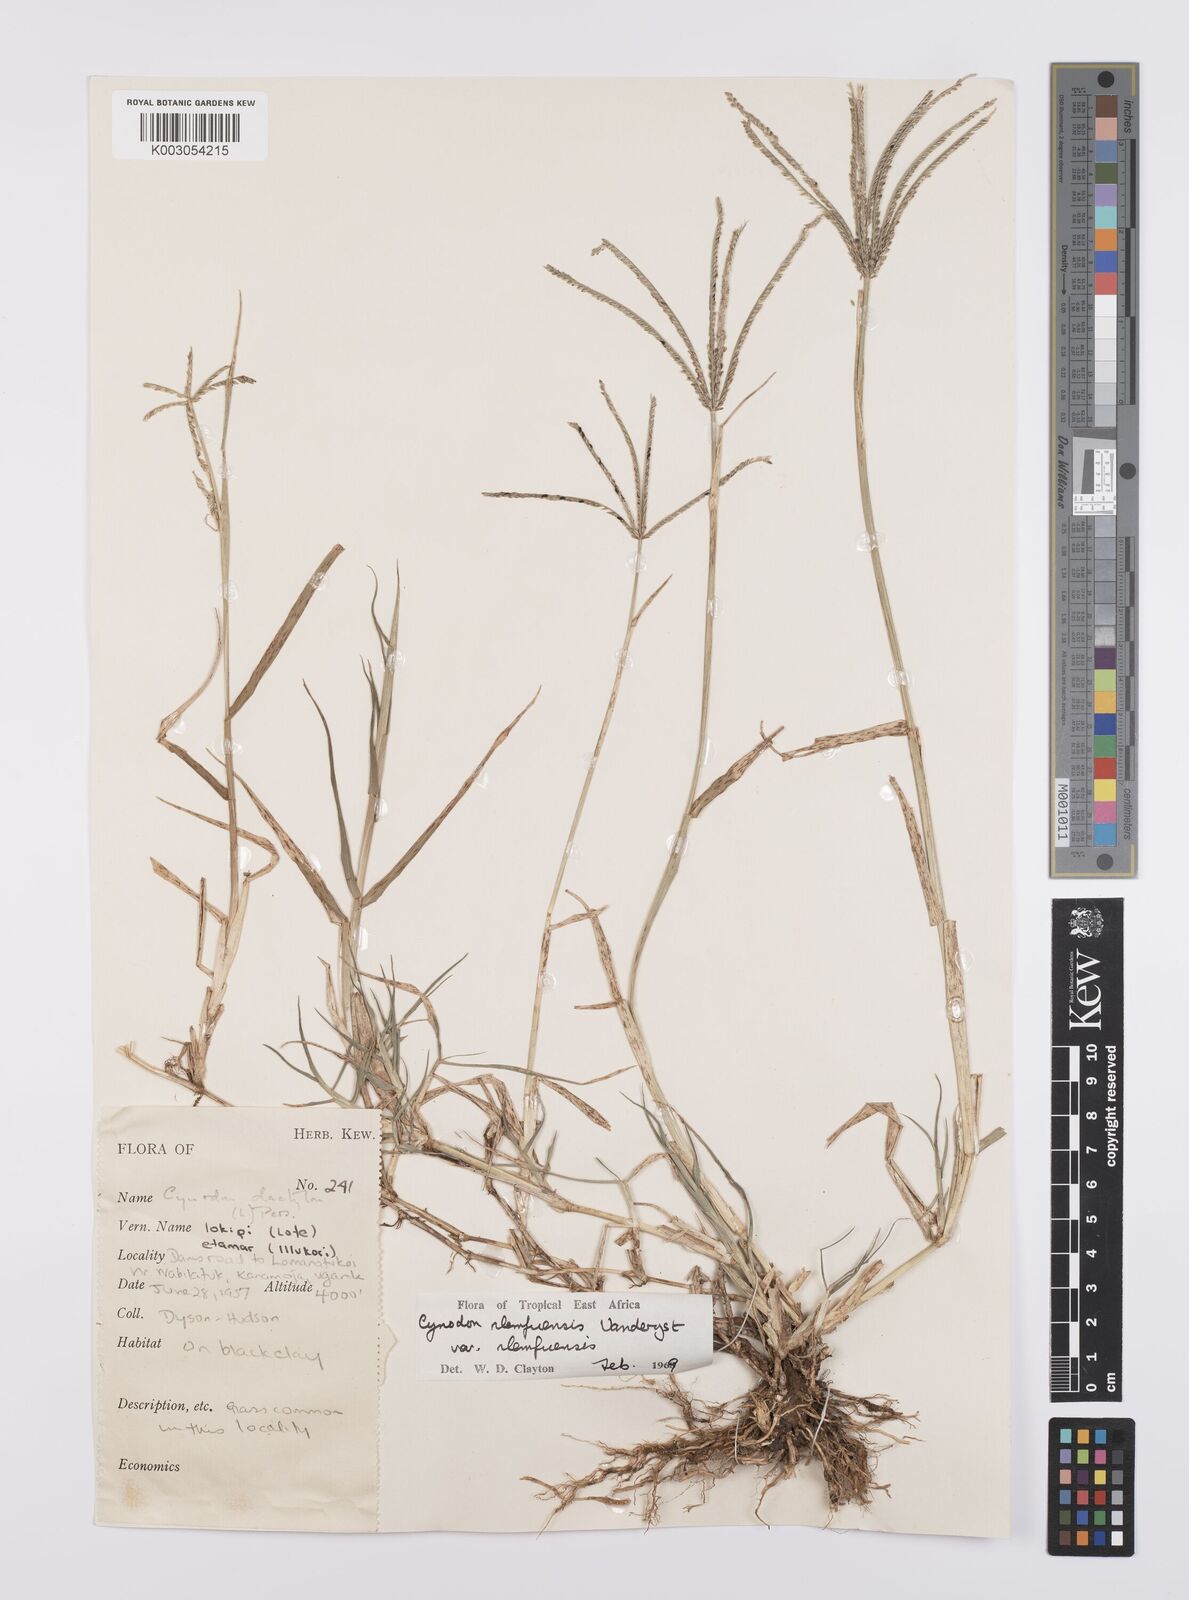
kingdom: Plantae
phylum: Tracheophyta
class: Liliopsida
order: Poales
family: Poaceae
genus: Cynodon
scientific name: Cynodon nlemfuensis
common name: African bermudagrass
